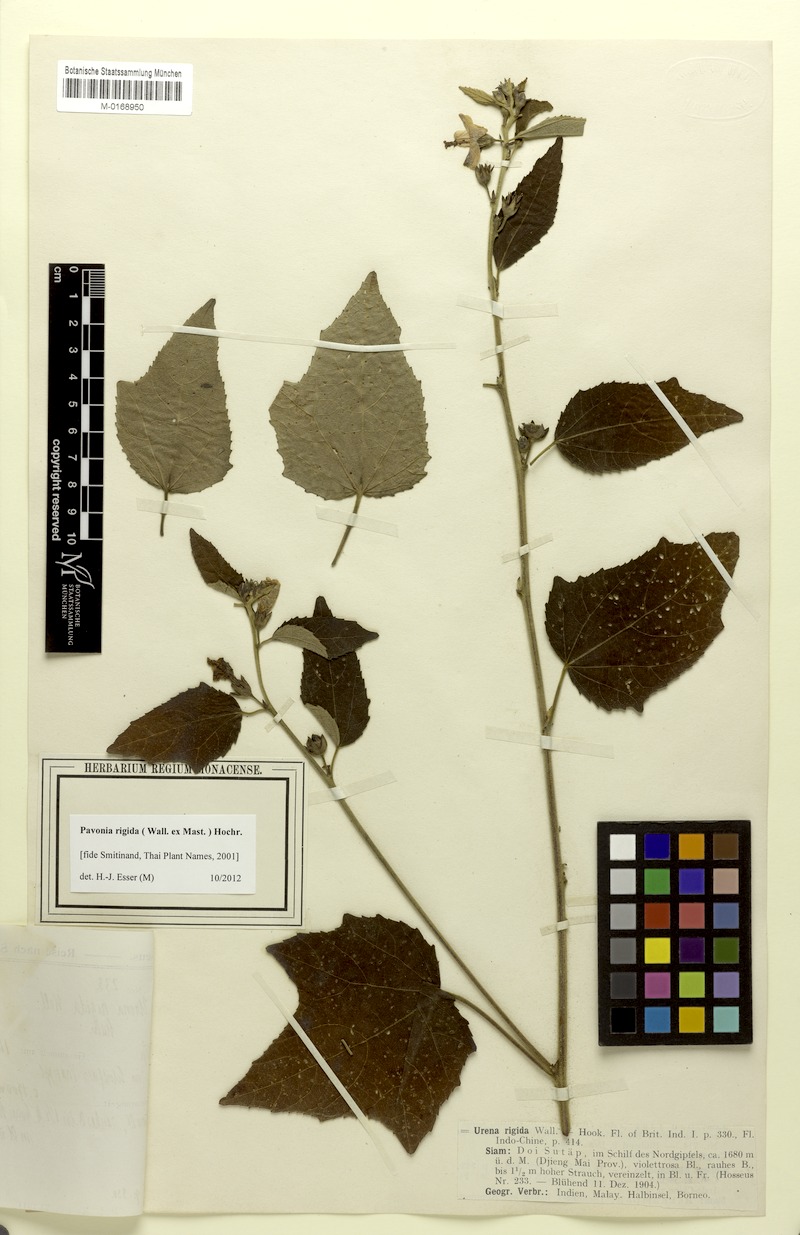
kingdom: Plantae
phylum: Tracheophyta
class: Magnoliopsida
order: Malvales
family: Malvaceae
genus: Urena
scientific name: Urena repanda
